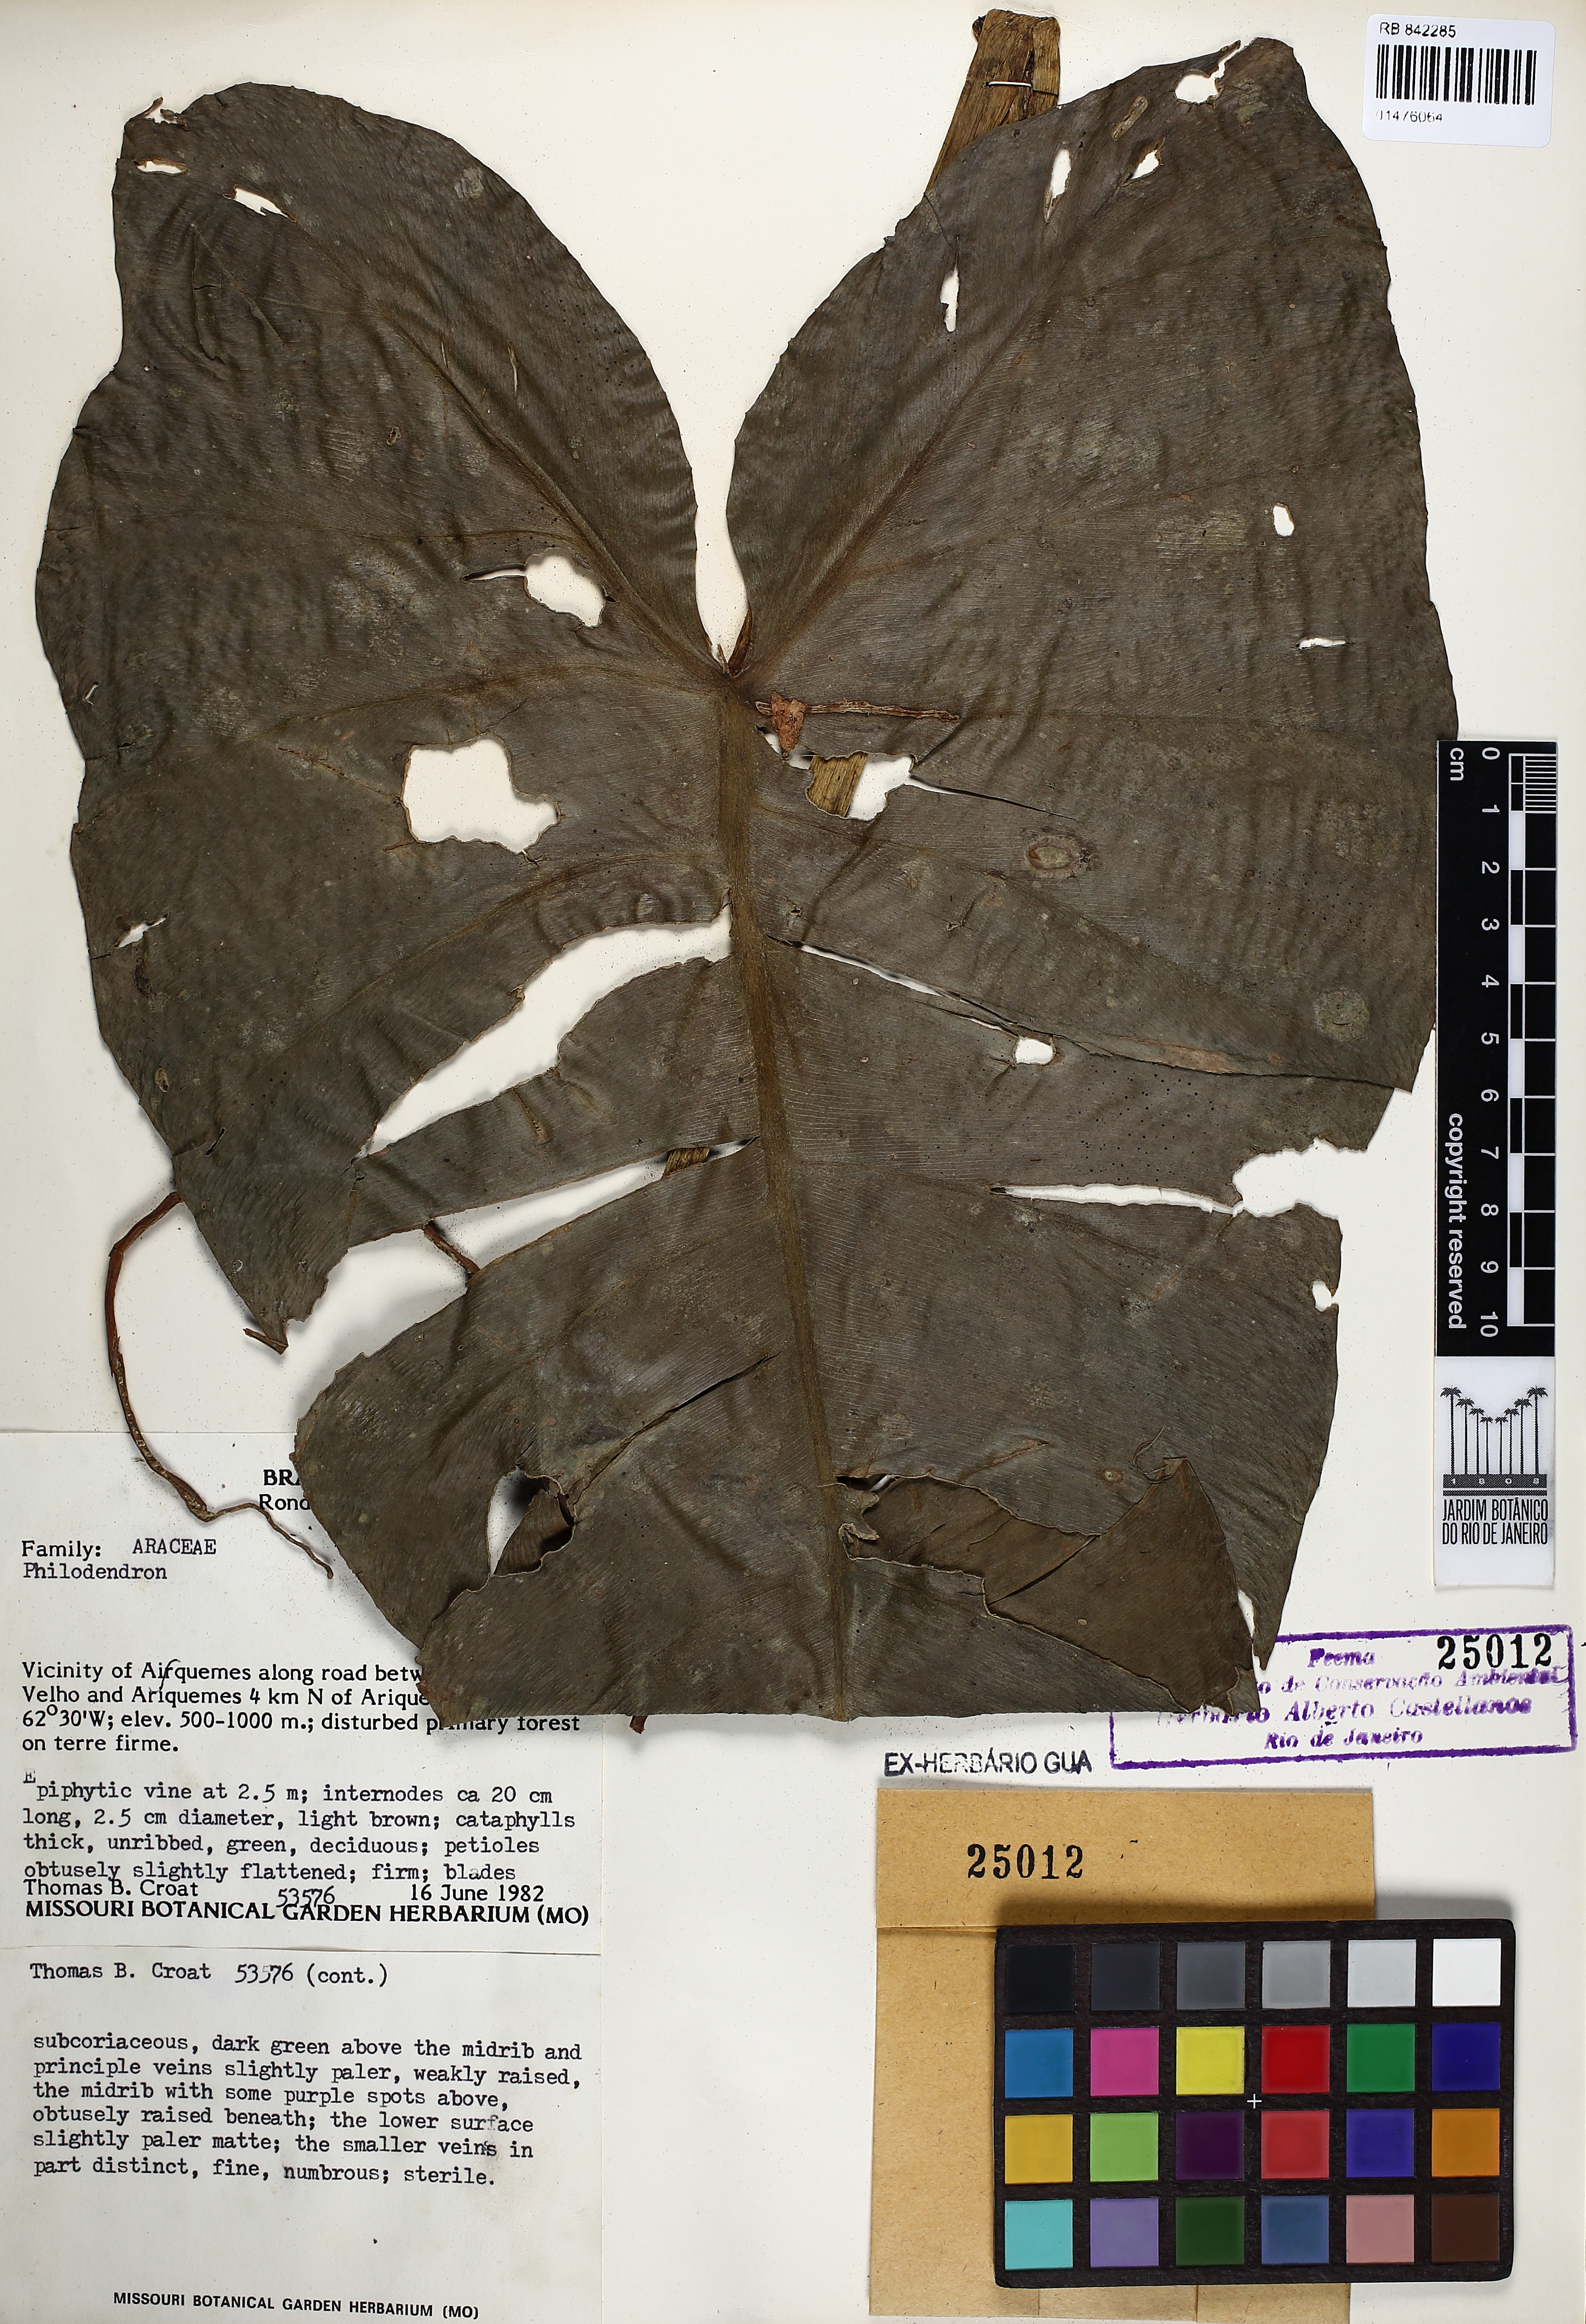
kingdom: Plantae
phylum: Tracheophyta
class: Liliopsida
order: Alismatales
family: Araceae
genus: Philodendron
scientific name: Philodendron
